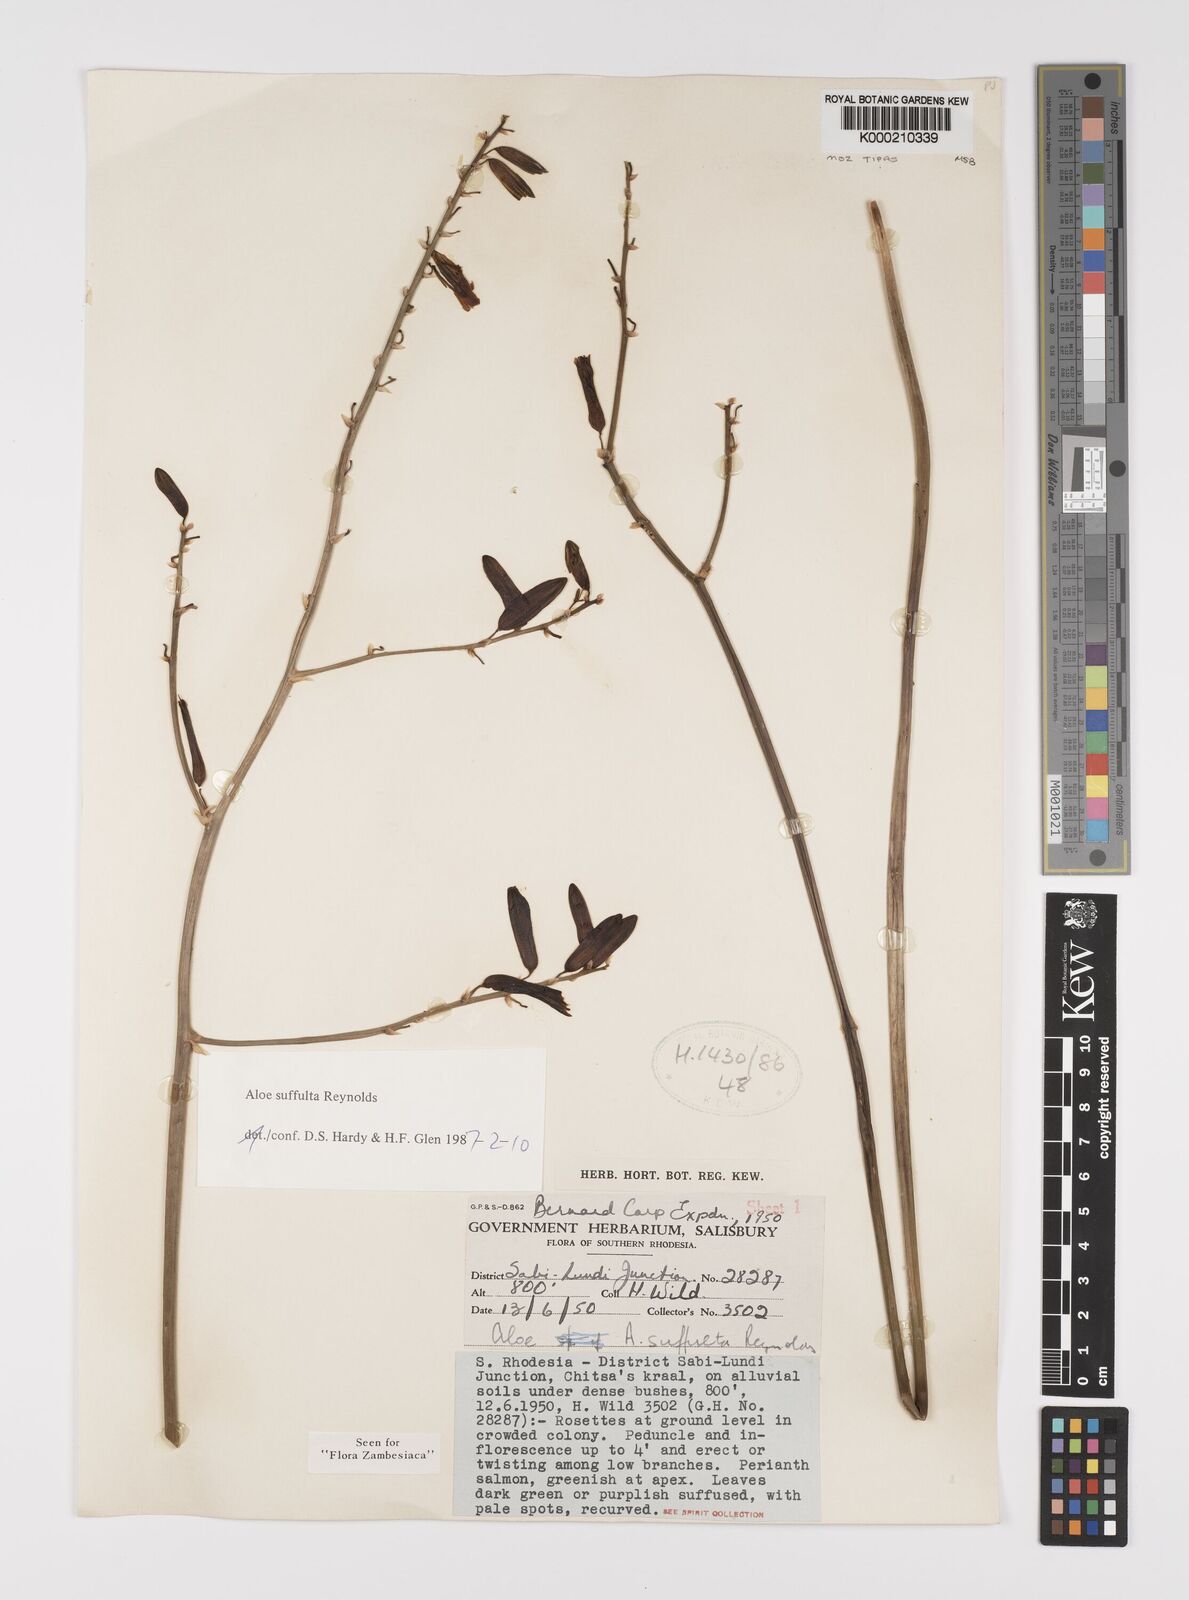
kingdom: Plantae
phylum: Tracheophyta
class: Liliopsida
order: Asparagales
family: Asphodelaceae
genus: Aloe
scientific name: Aloe suffulta
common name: Climbing-flower aloe
